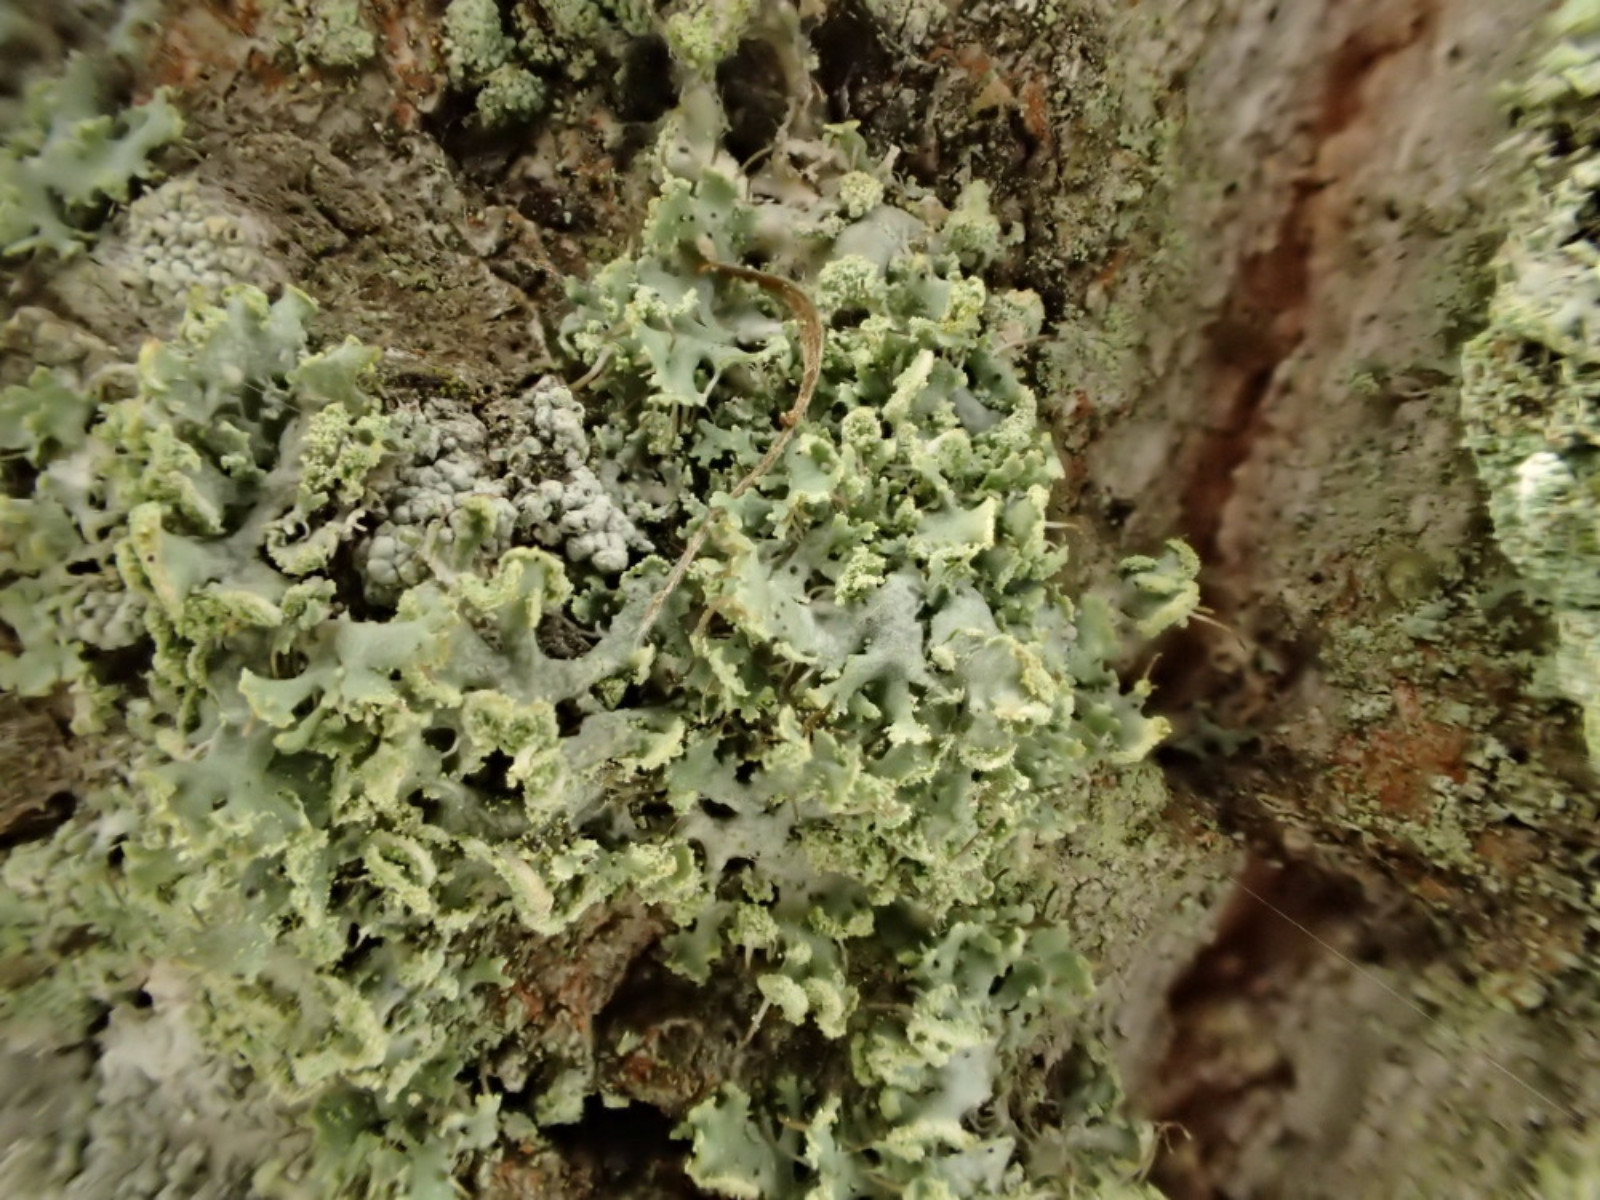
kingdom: Fungi
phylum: Ascomycota
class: Lecanoromycetes
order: Caliciales
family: Physciaceae
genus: Physcia
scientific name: Physcia tenella
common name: spæd rosetlav
